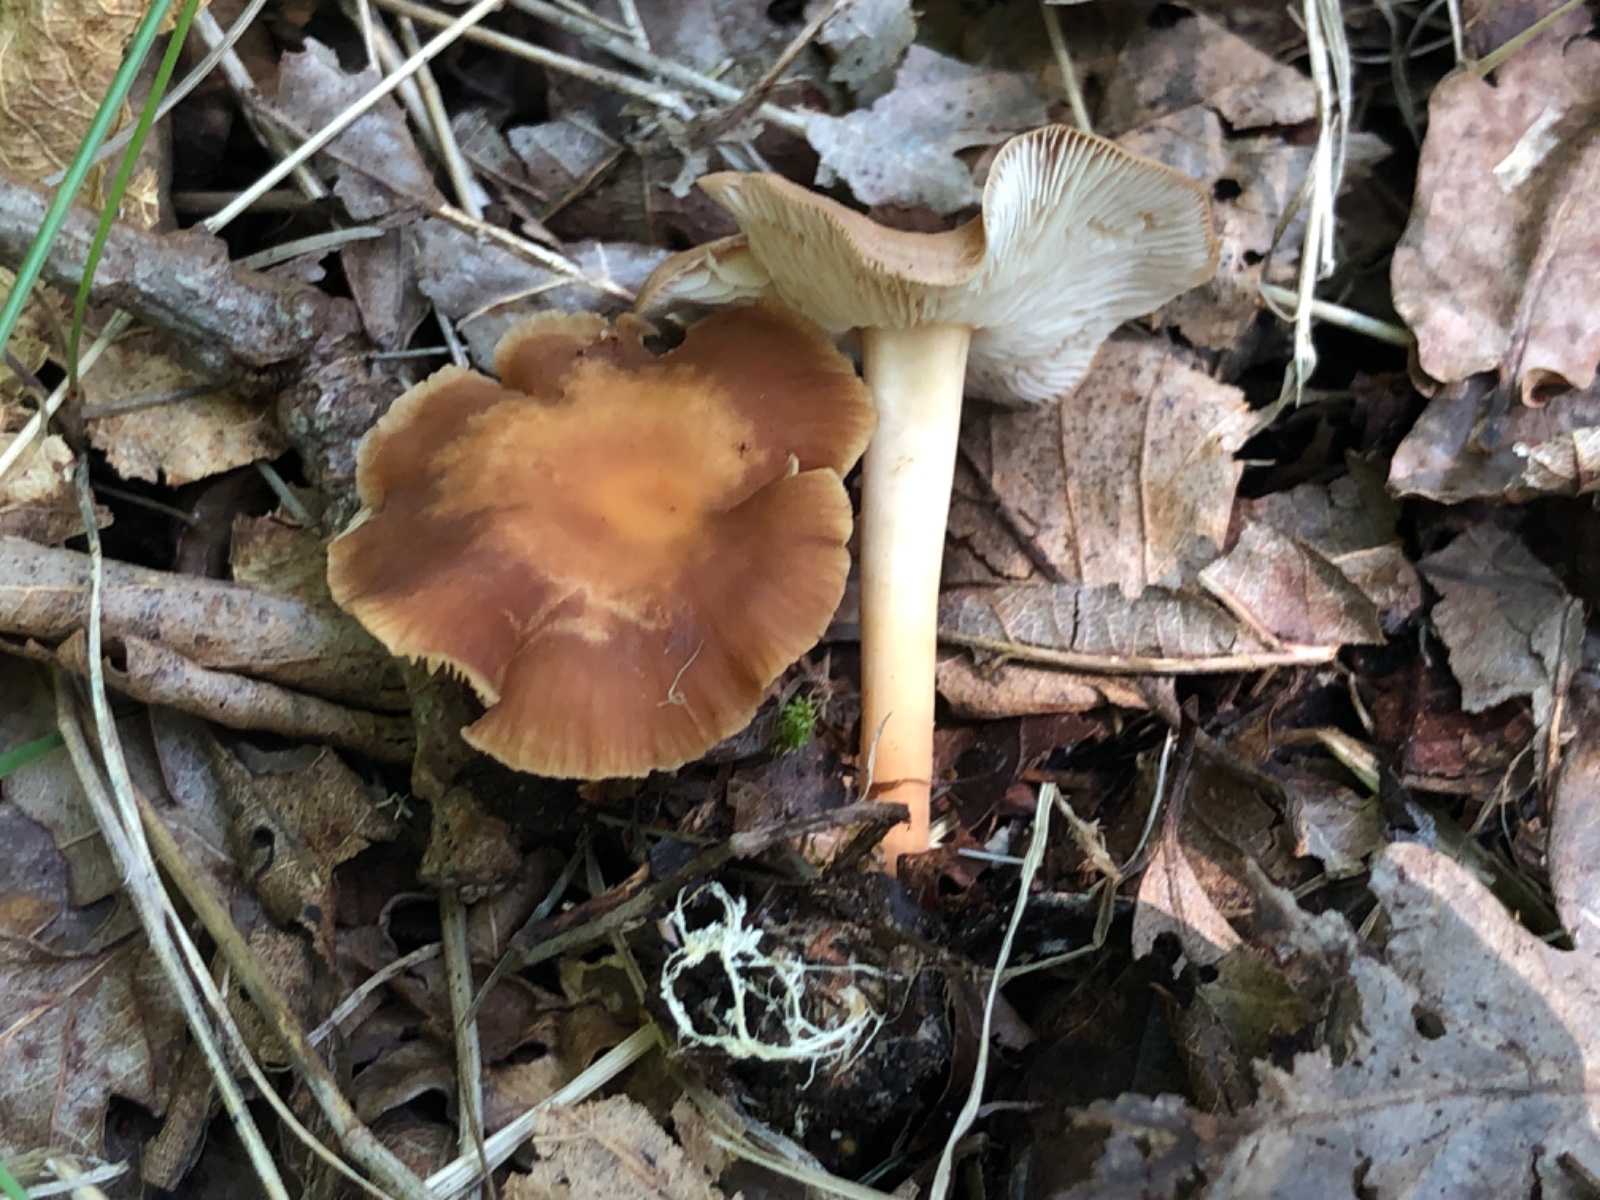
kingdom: Fungi
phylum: Basidiomycota
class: Agaricomycetes
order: Agaricales
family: Omphalotaceae
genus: Gymnopus
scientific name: Gymnopus ocior
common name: mørk fladhat
